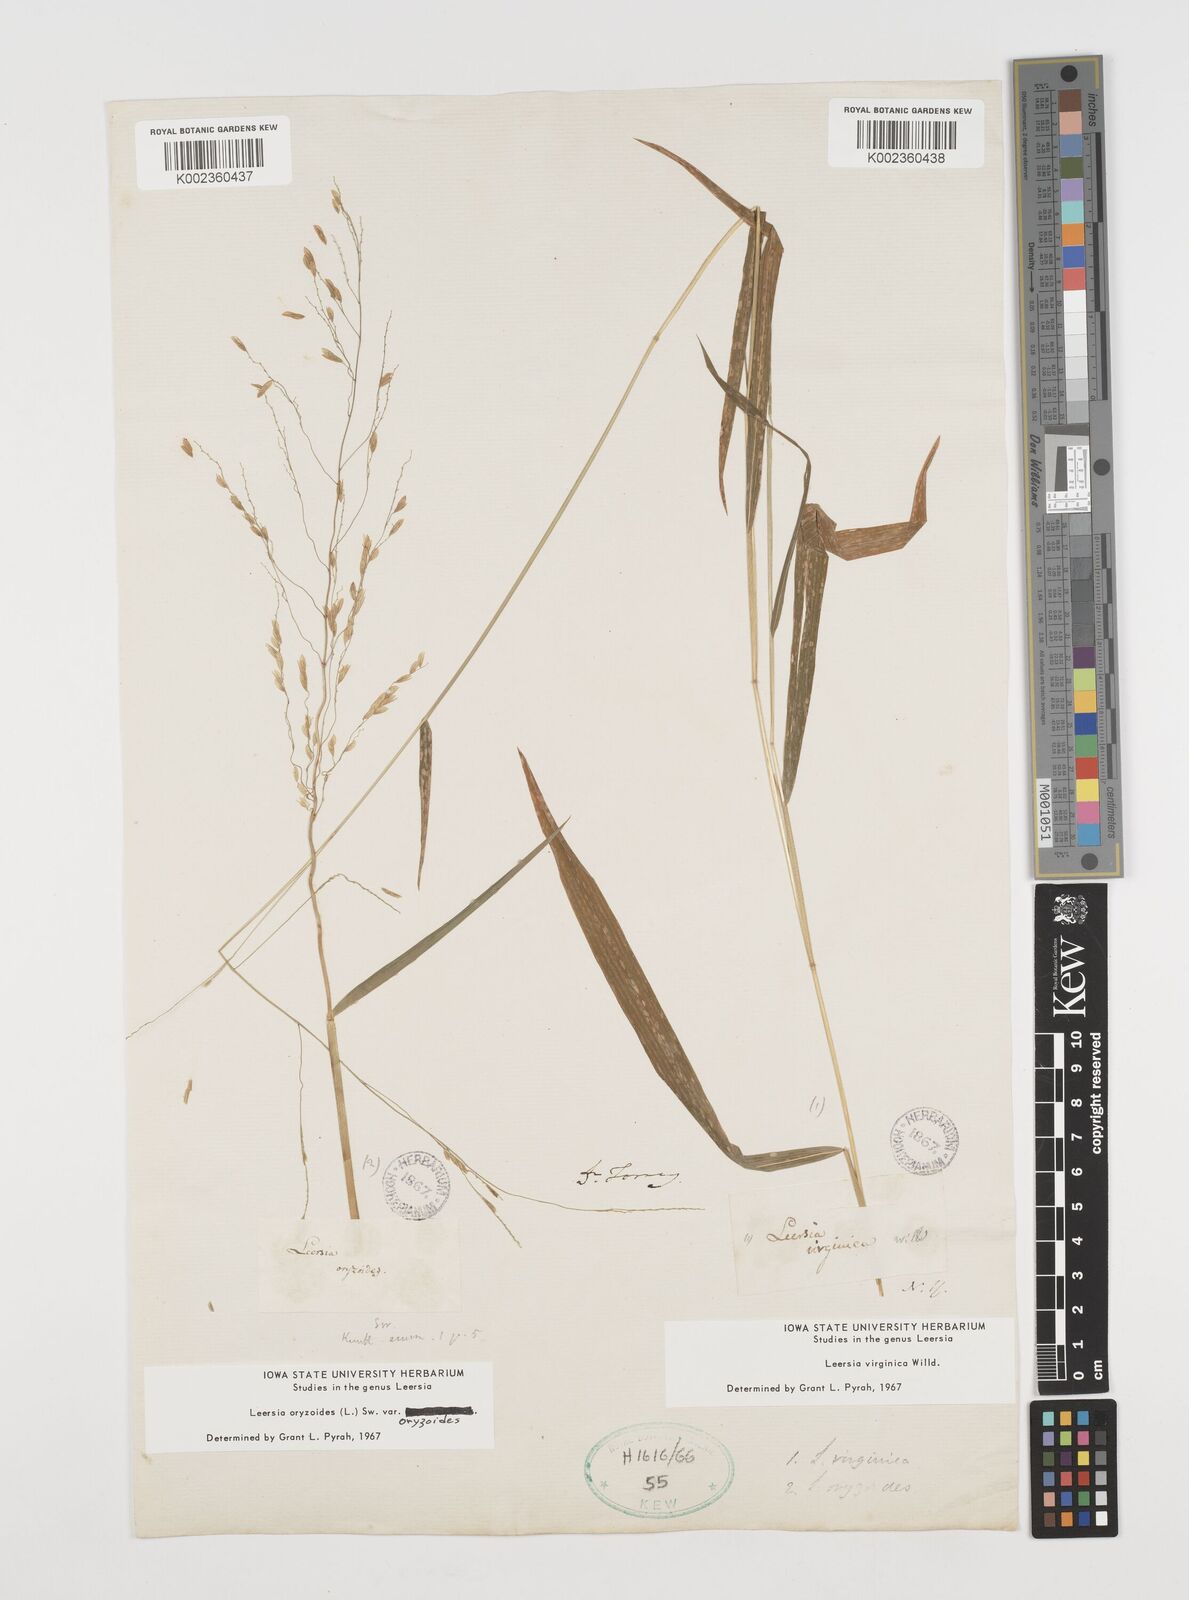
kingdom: Plantae
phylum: Tracheophyta
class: Liliopsida
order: Poales
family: Poaceae
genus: Leersia
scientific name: Leersia virginica
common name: White cutgrass
